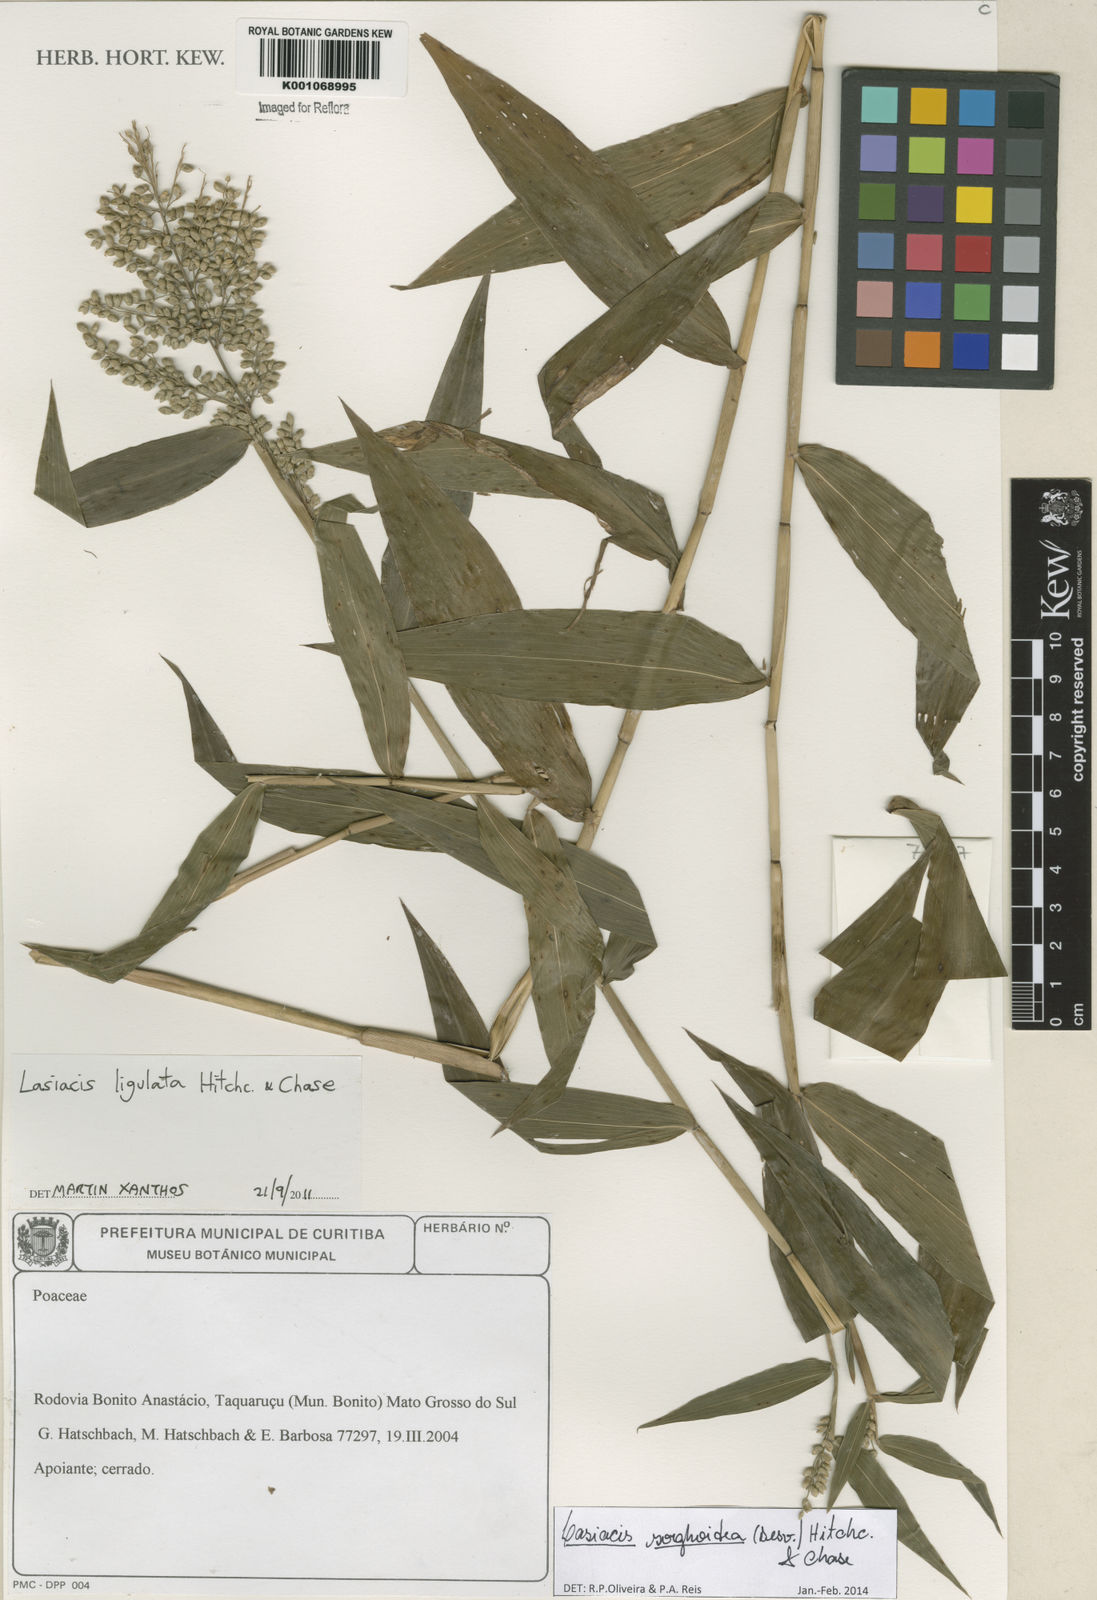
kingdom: Plantae
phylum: Tracheophyta
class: Liliopsida
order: Poales
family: Poaceae
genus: Lasiacis
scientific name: Lasiacis maculata
